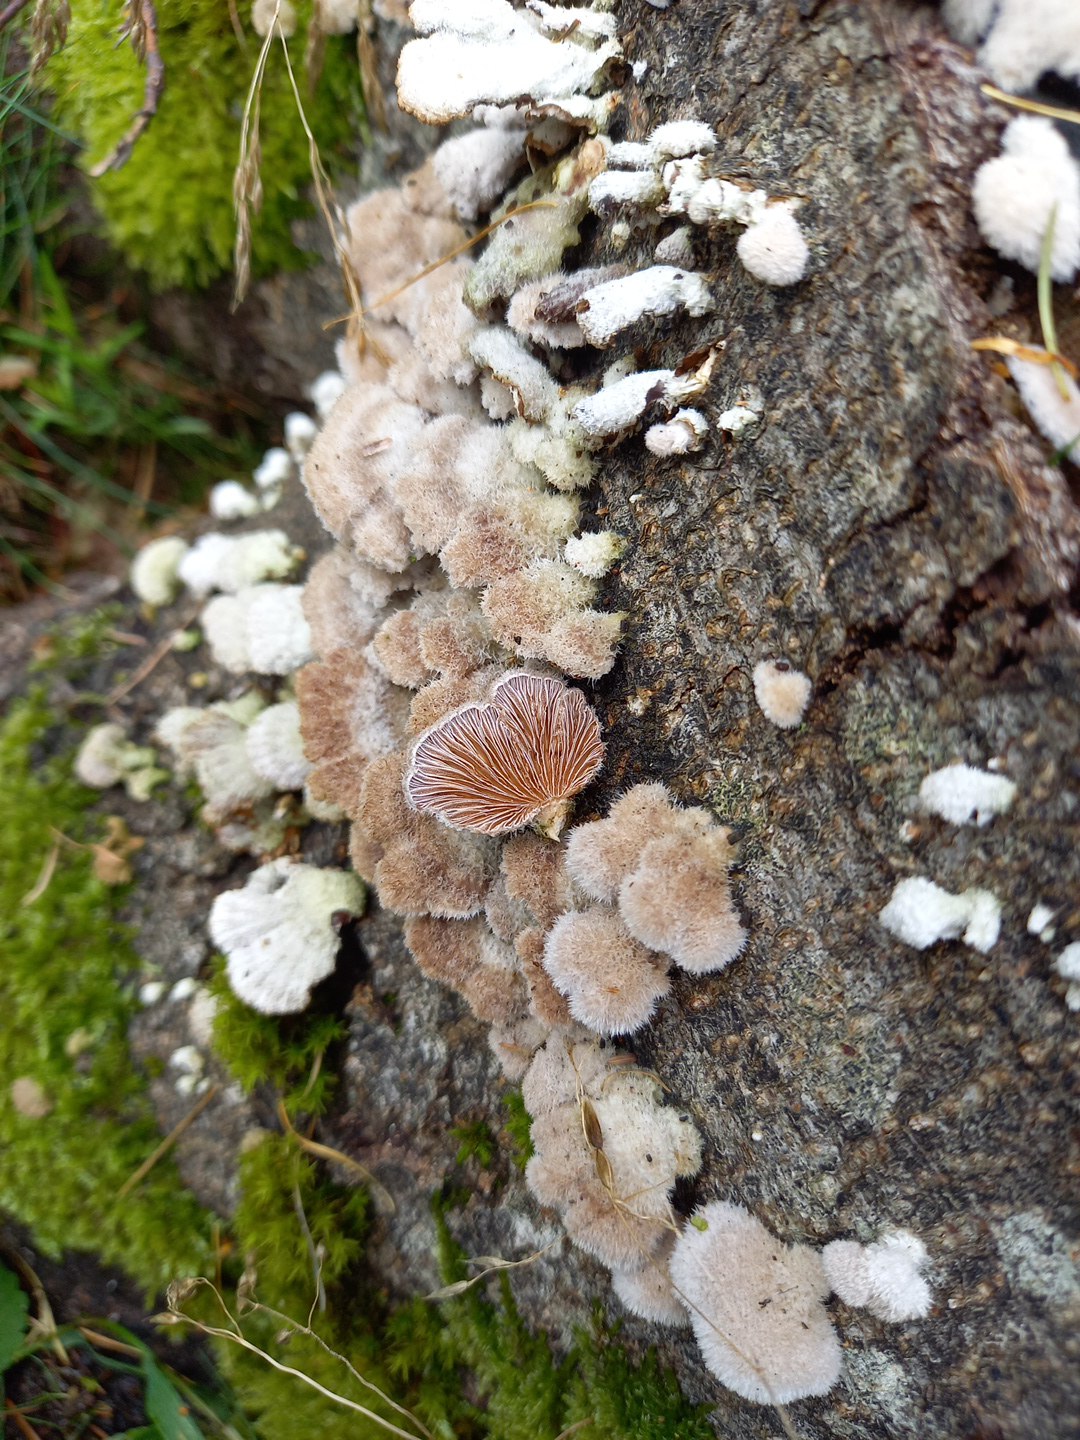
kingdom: Fungi
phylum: Basidiomycota
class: Agaricomycetes
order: Agaricales
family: Schizophyllaceae
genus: Schizophyllum
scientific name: Schizophyllum commune
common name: kløvblad
